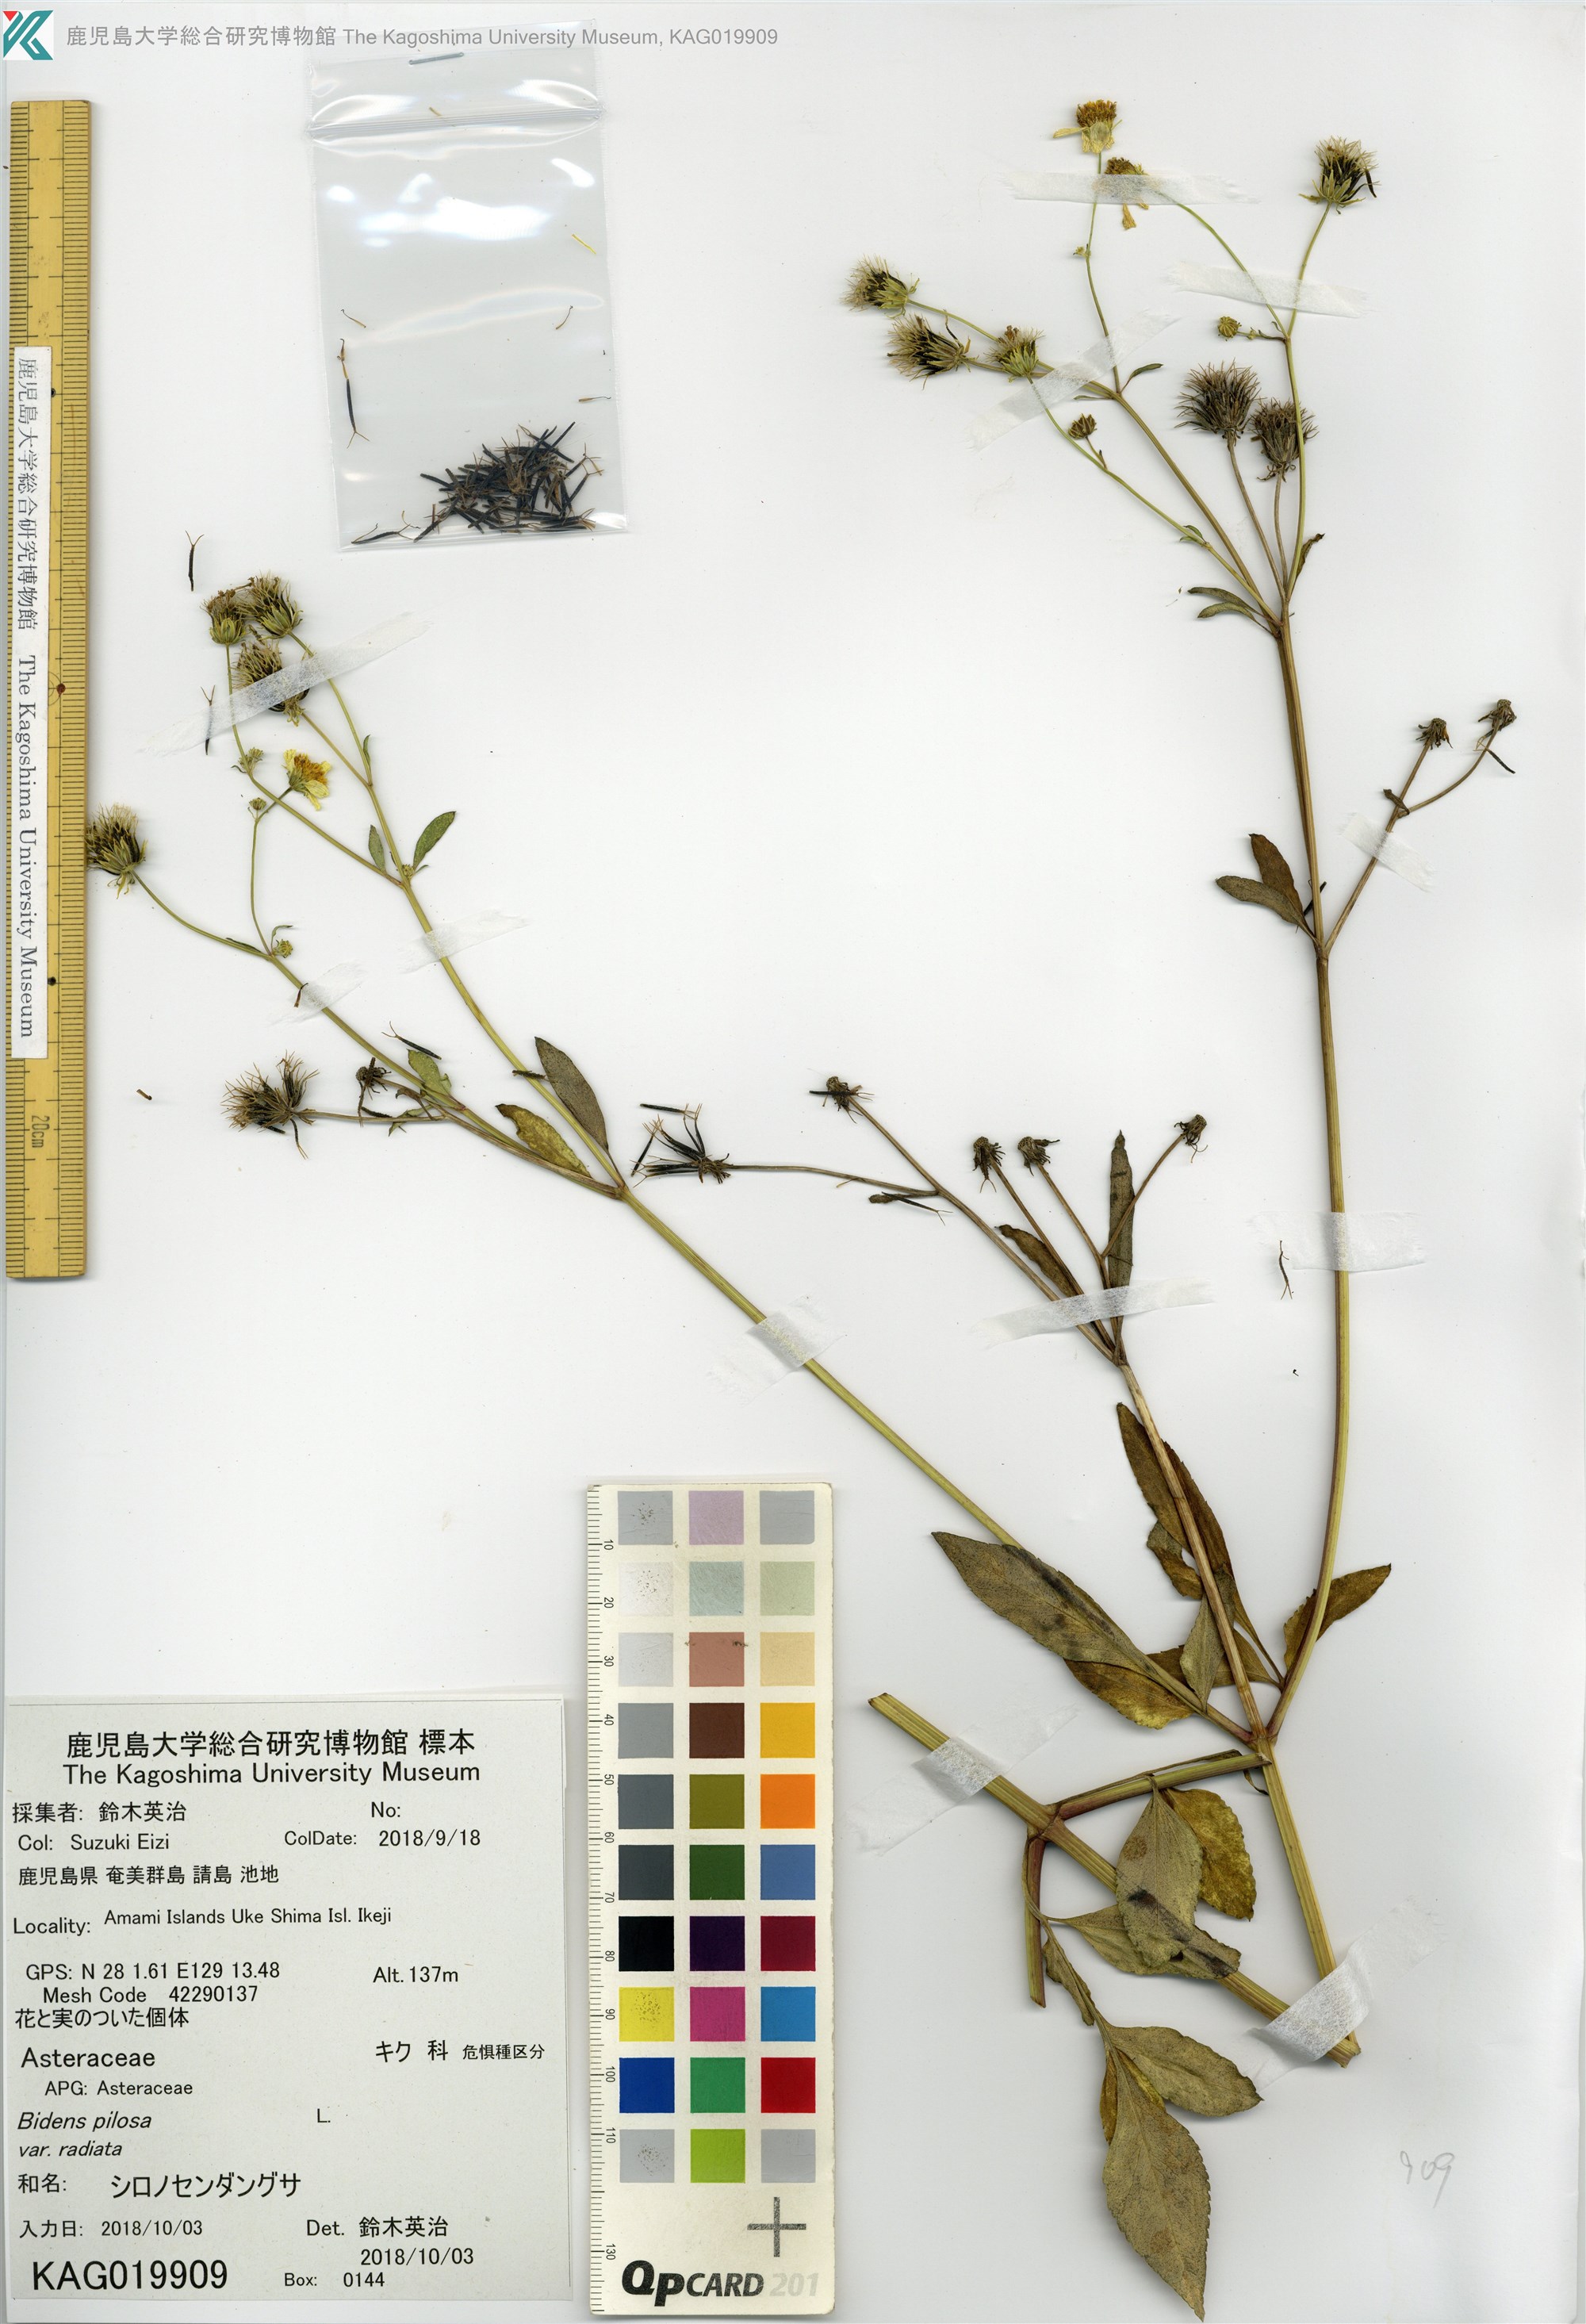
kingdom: Plantae
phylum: Tracheophyta
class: Magnoliopsida
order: Asterales
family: Asteraceae
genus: Bidens
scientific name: Bidens pilosa
